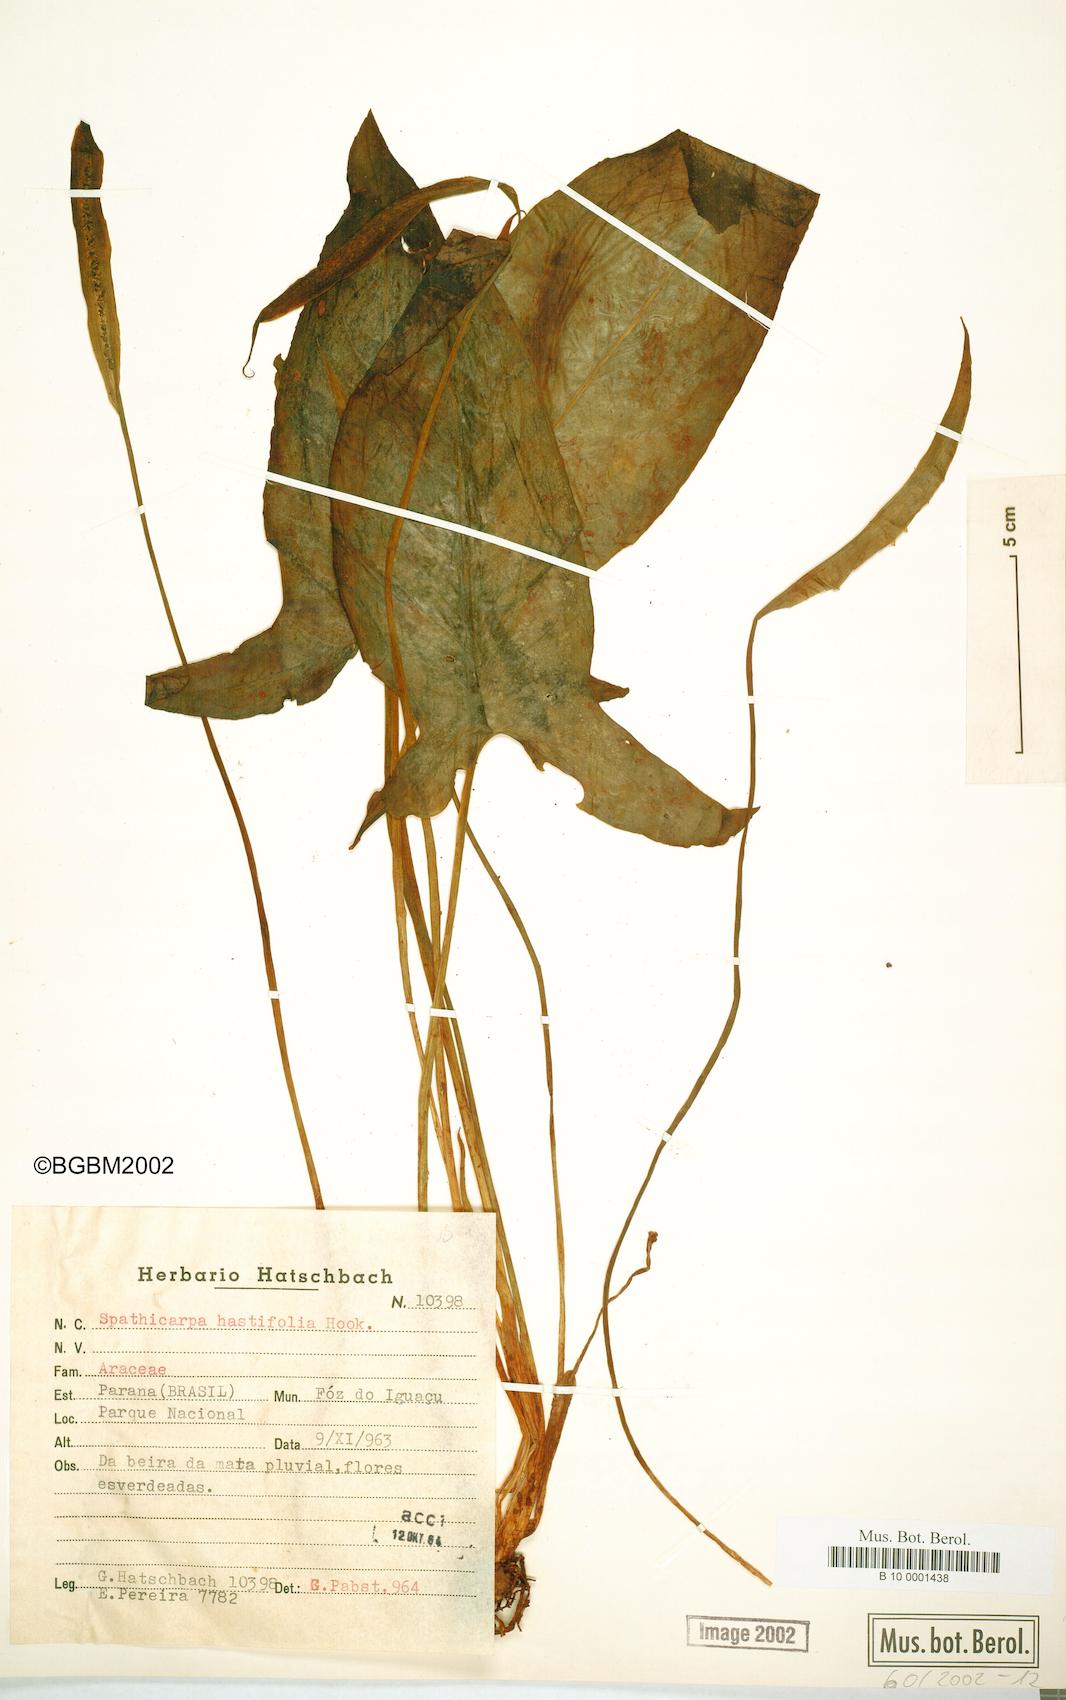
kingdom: Plantae
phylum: Tracheophyta
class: Liliopsida
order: Alismatales
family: Araceae
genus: Spathicarpa
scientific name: Spathicarpa hastifolia
